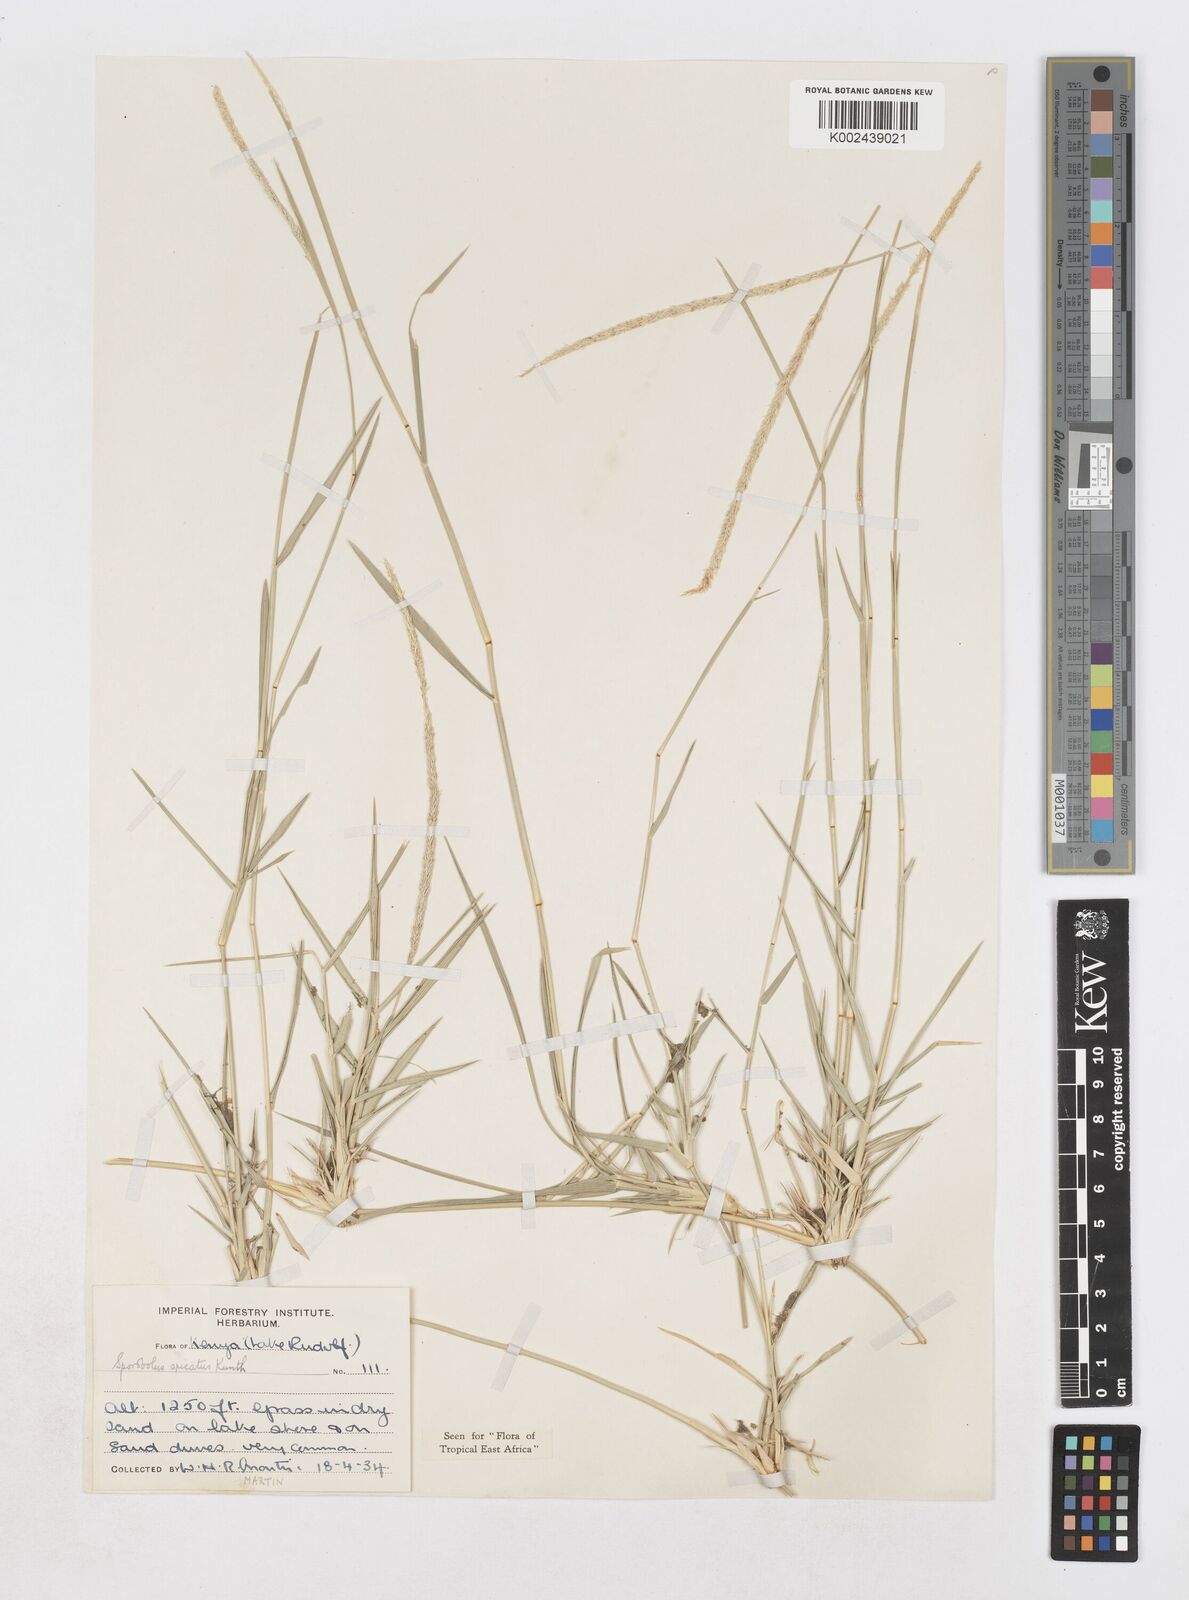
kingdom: Plantae
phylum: Tracheophyta
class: Liliopsida
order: Poales
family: Poaceae
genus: Sporobolus
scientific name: Sporobolus spicatus
